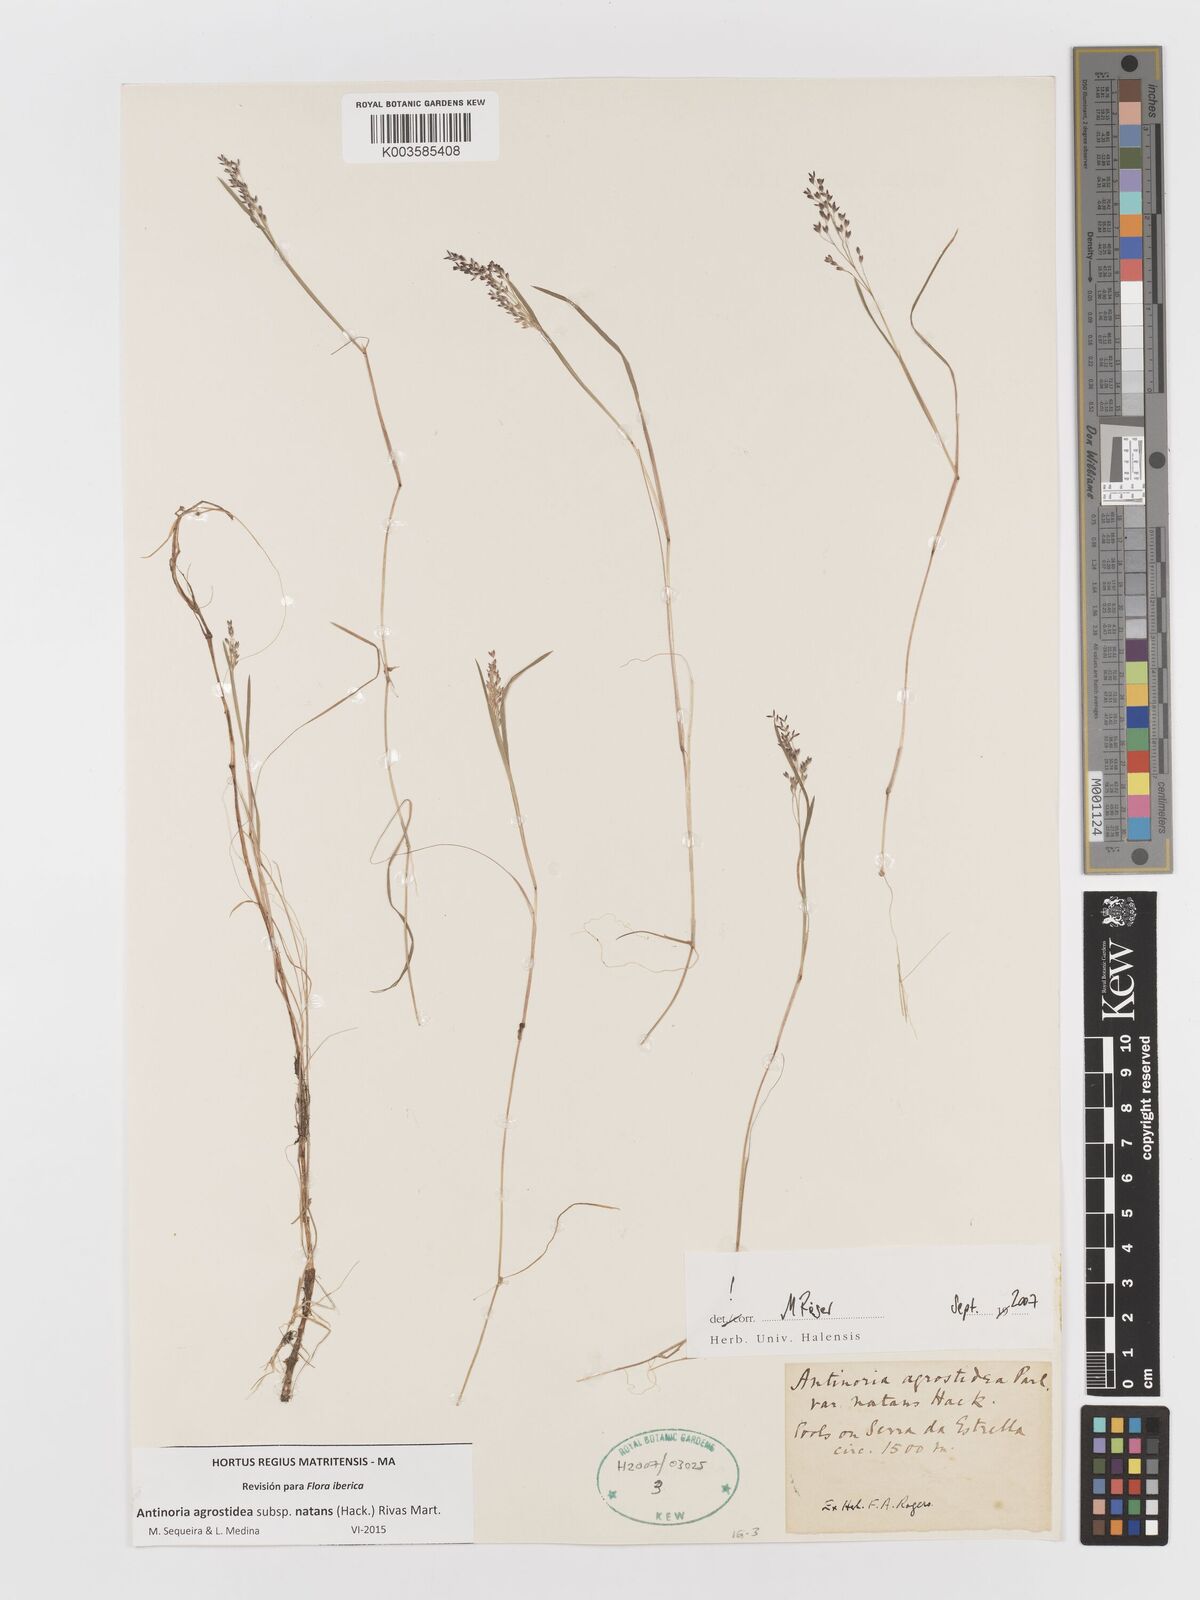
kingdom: Plantae
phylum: Tracheophyta
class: Liliopsida
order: Poales
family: Poaceae
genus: Antinoria
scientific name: Antinoria agrostidea
